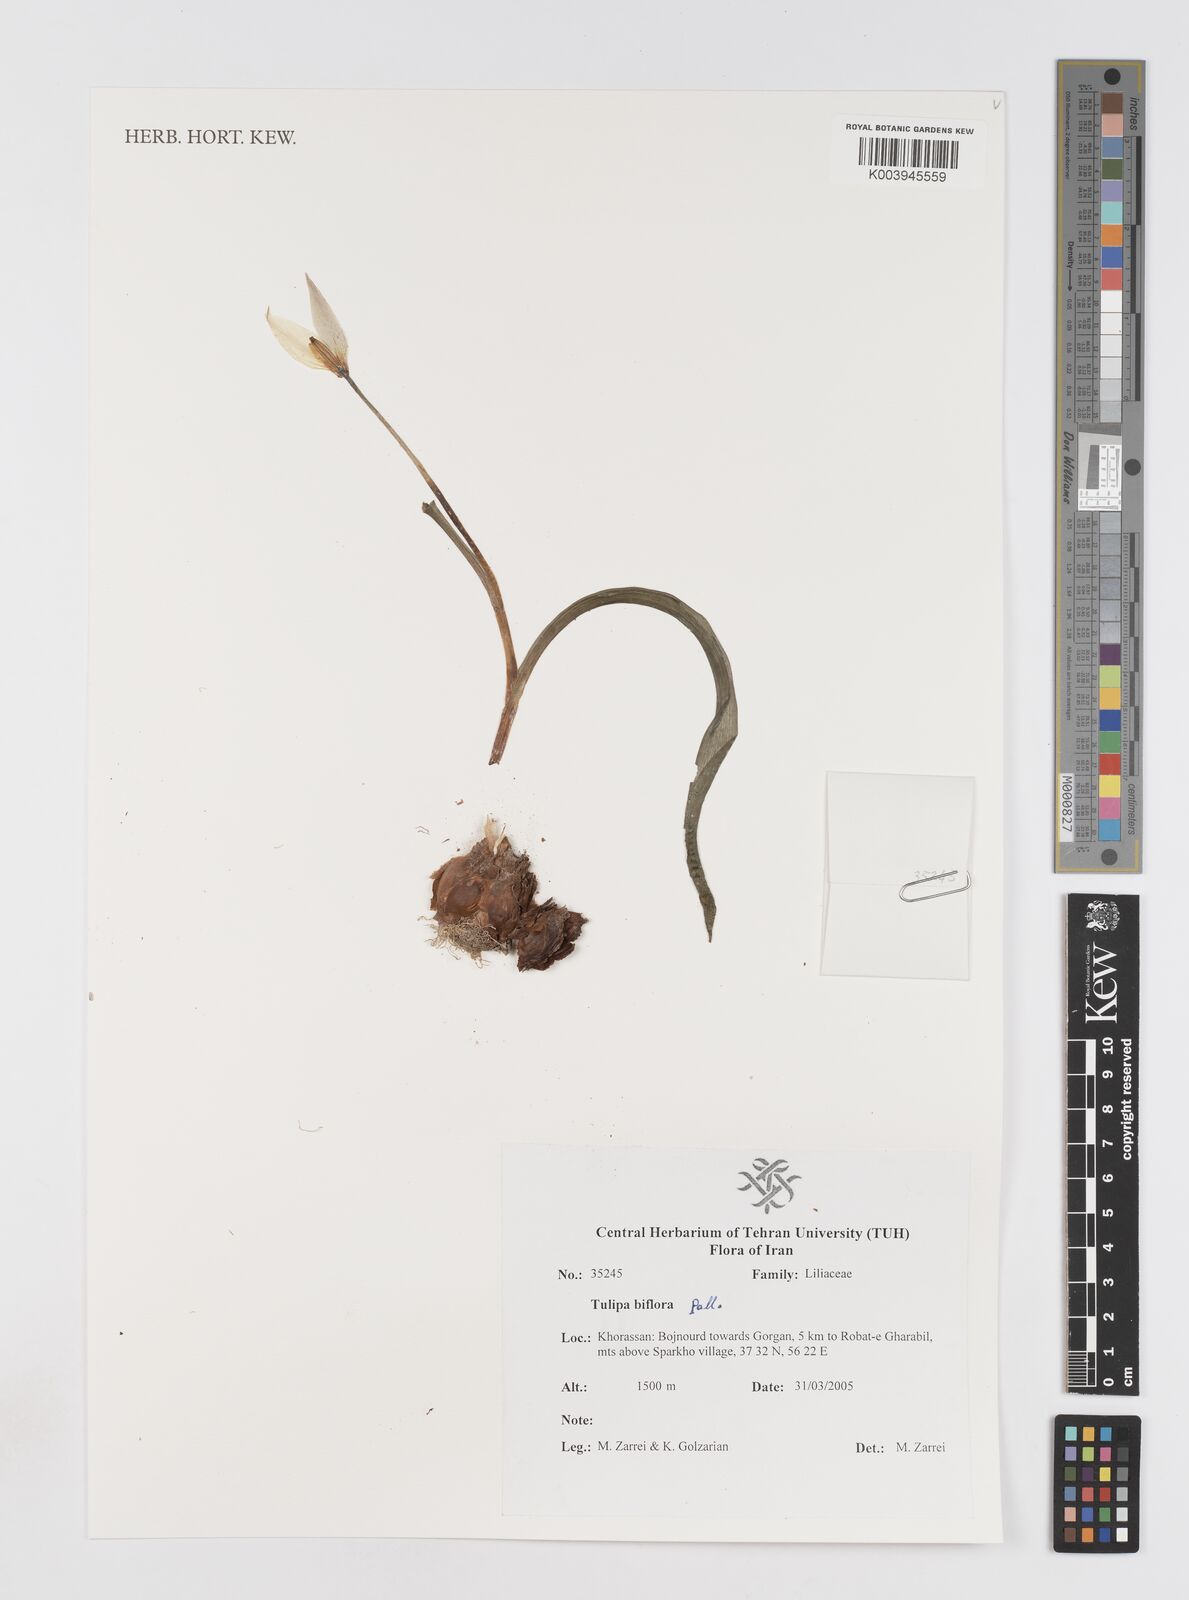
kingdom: Plantae
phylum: Tracheophyta
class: Liliopsida
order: Liliales
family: Liliaceae
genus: Tulipa
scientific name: Tulipa biflora
